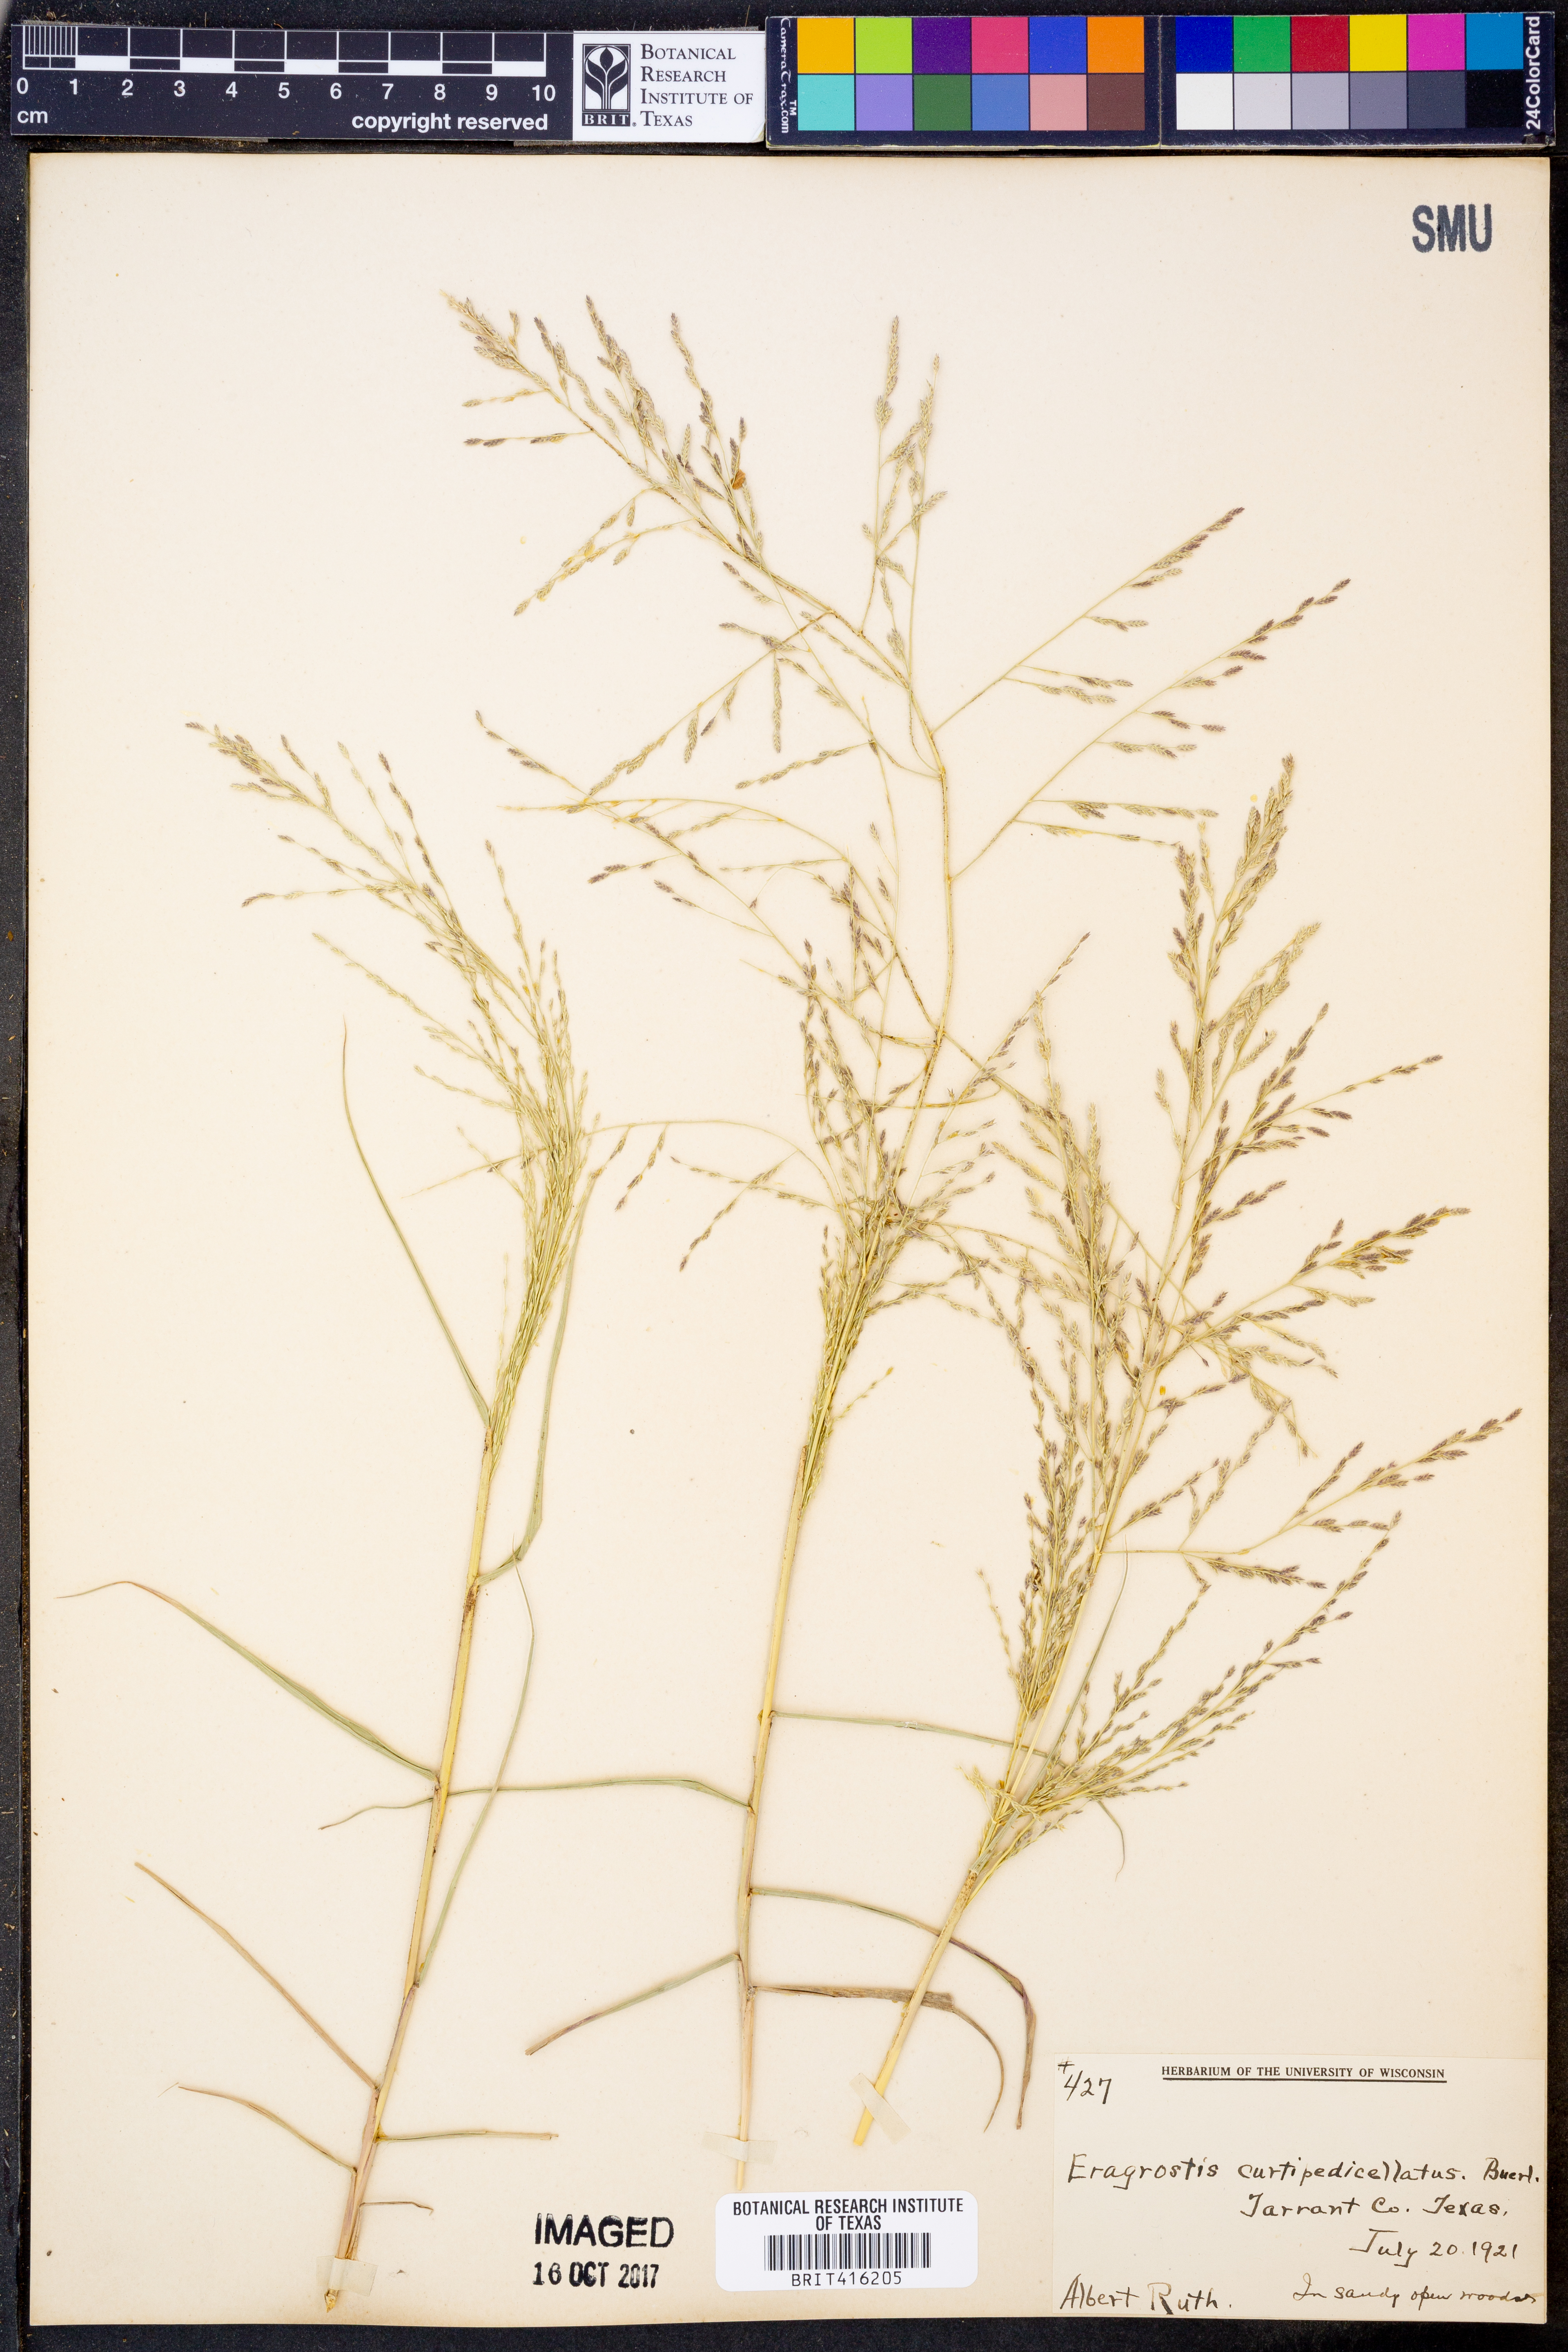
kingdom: Plantae
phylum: Tracheophyta
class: Liliopsida
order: Poales
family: Poaceae
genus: Eragrostis
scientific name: Eragrostis curtipedicellata
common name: Gummy love grass
